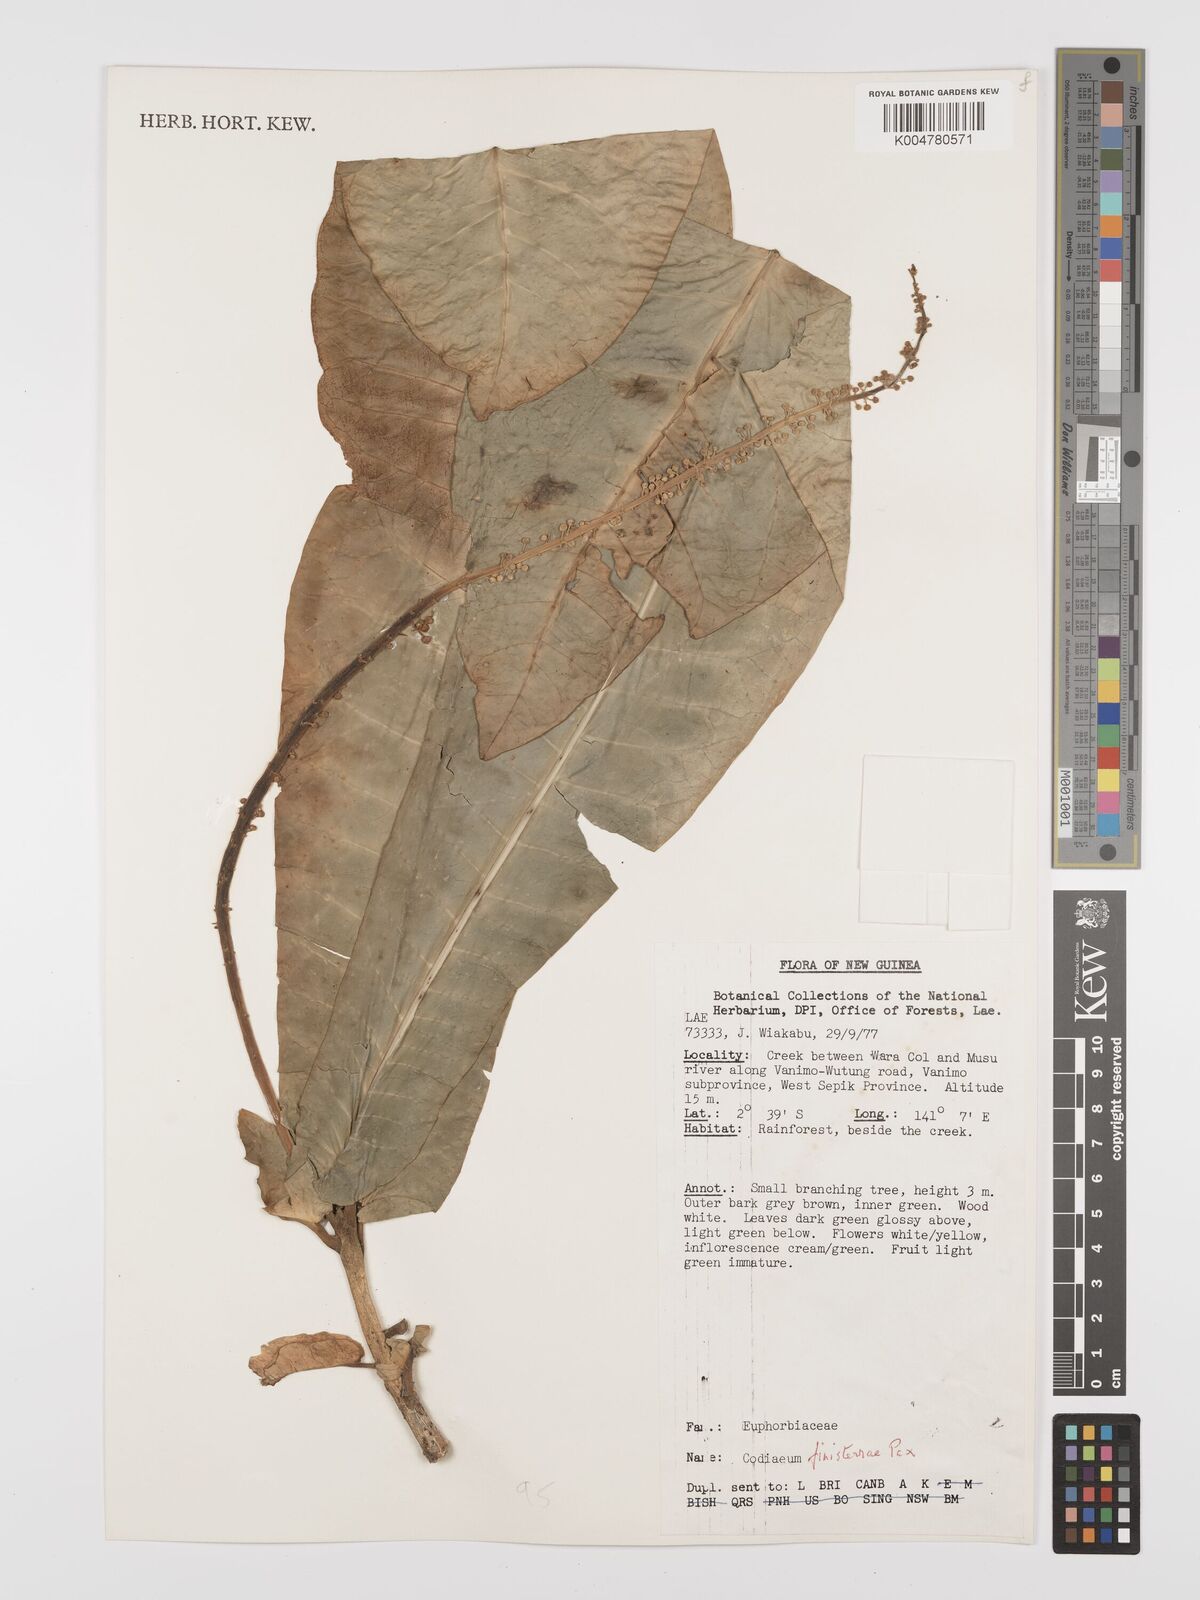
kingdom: Plantae
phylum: Tracheophyta
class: Magnoliopsida
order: Malpighiales
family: Euphorbiaceae
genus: Codiaeum
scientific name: Codiaeum finisterrae
